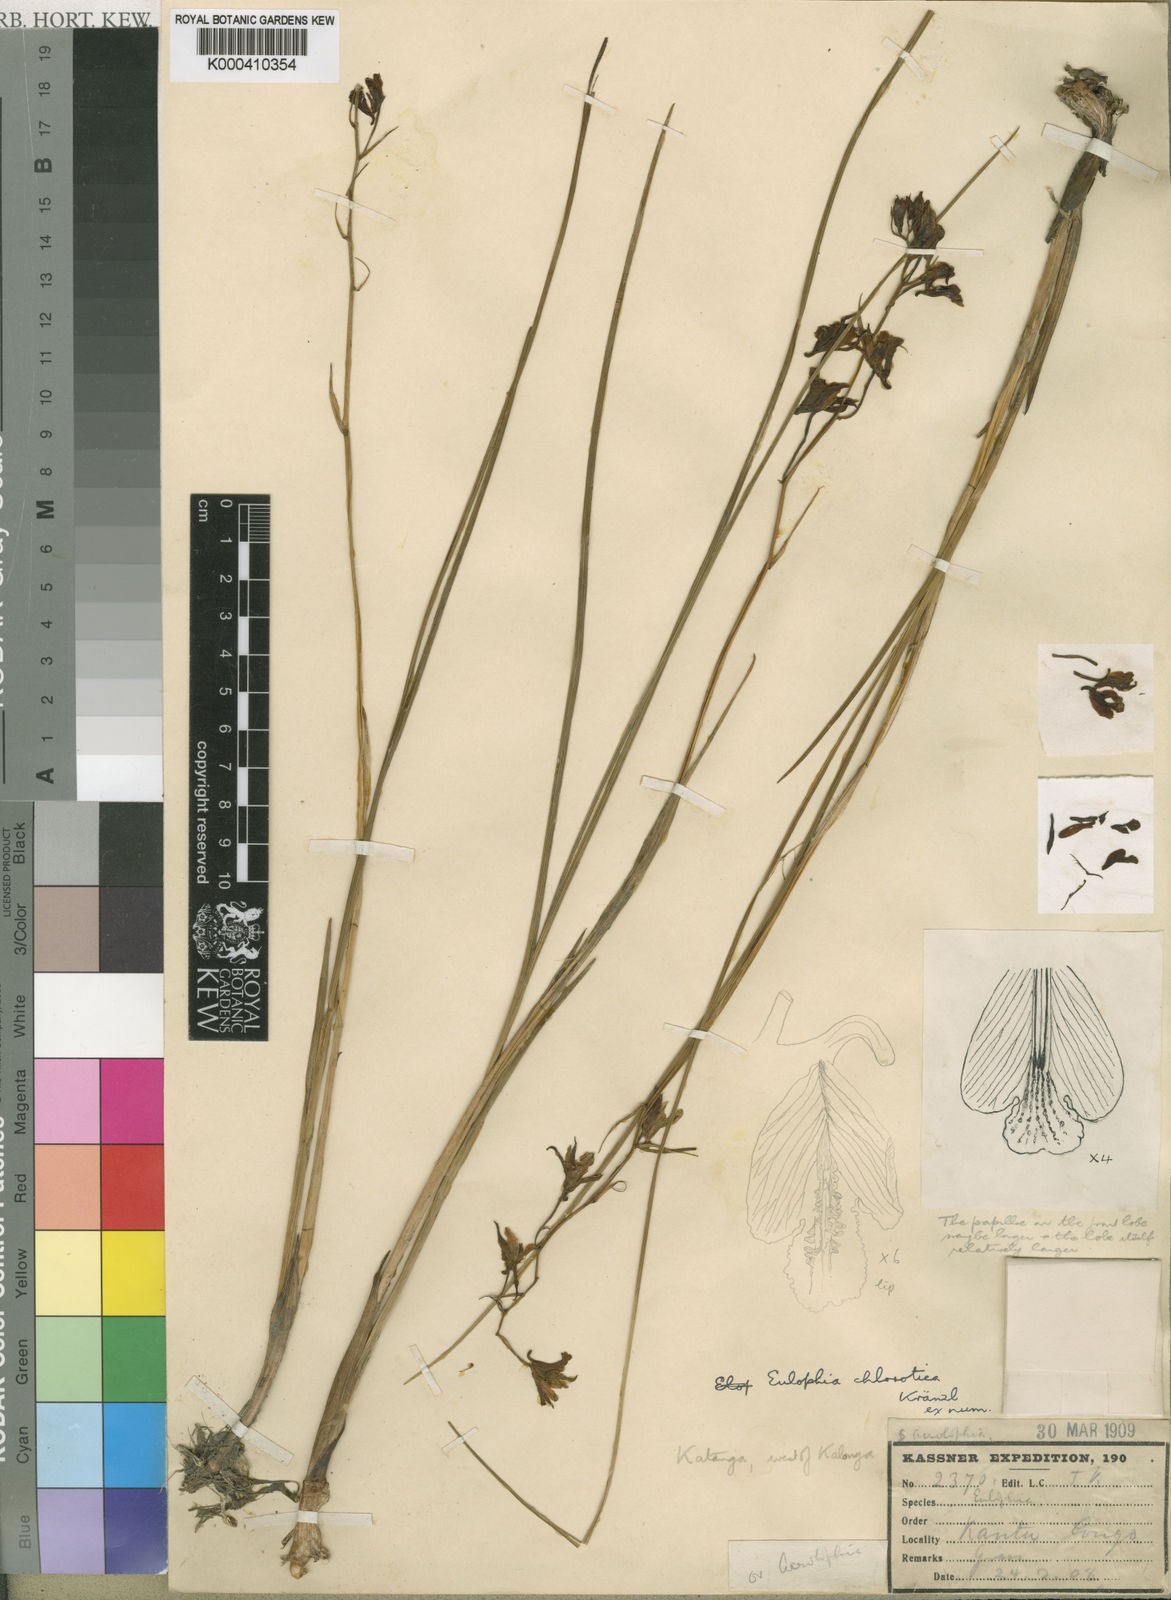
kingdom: Plantae
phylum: Tracheophyta
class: Liliopsida
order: Asparagales
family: Orchidaceae
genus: Eulophia
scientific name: Eulophia chlorotica
